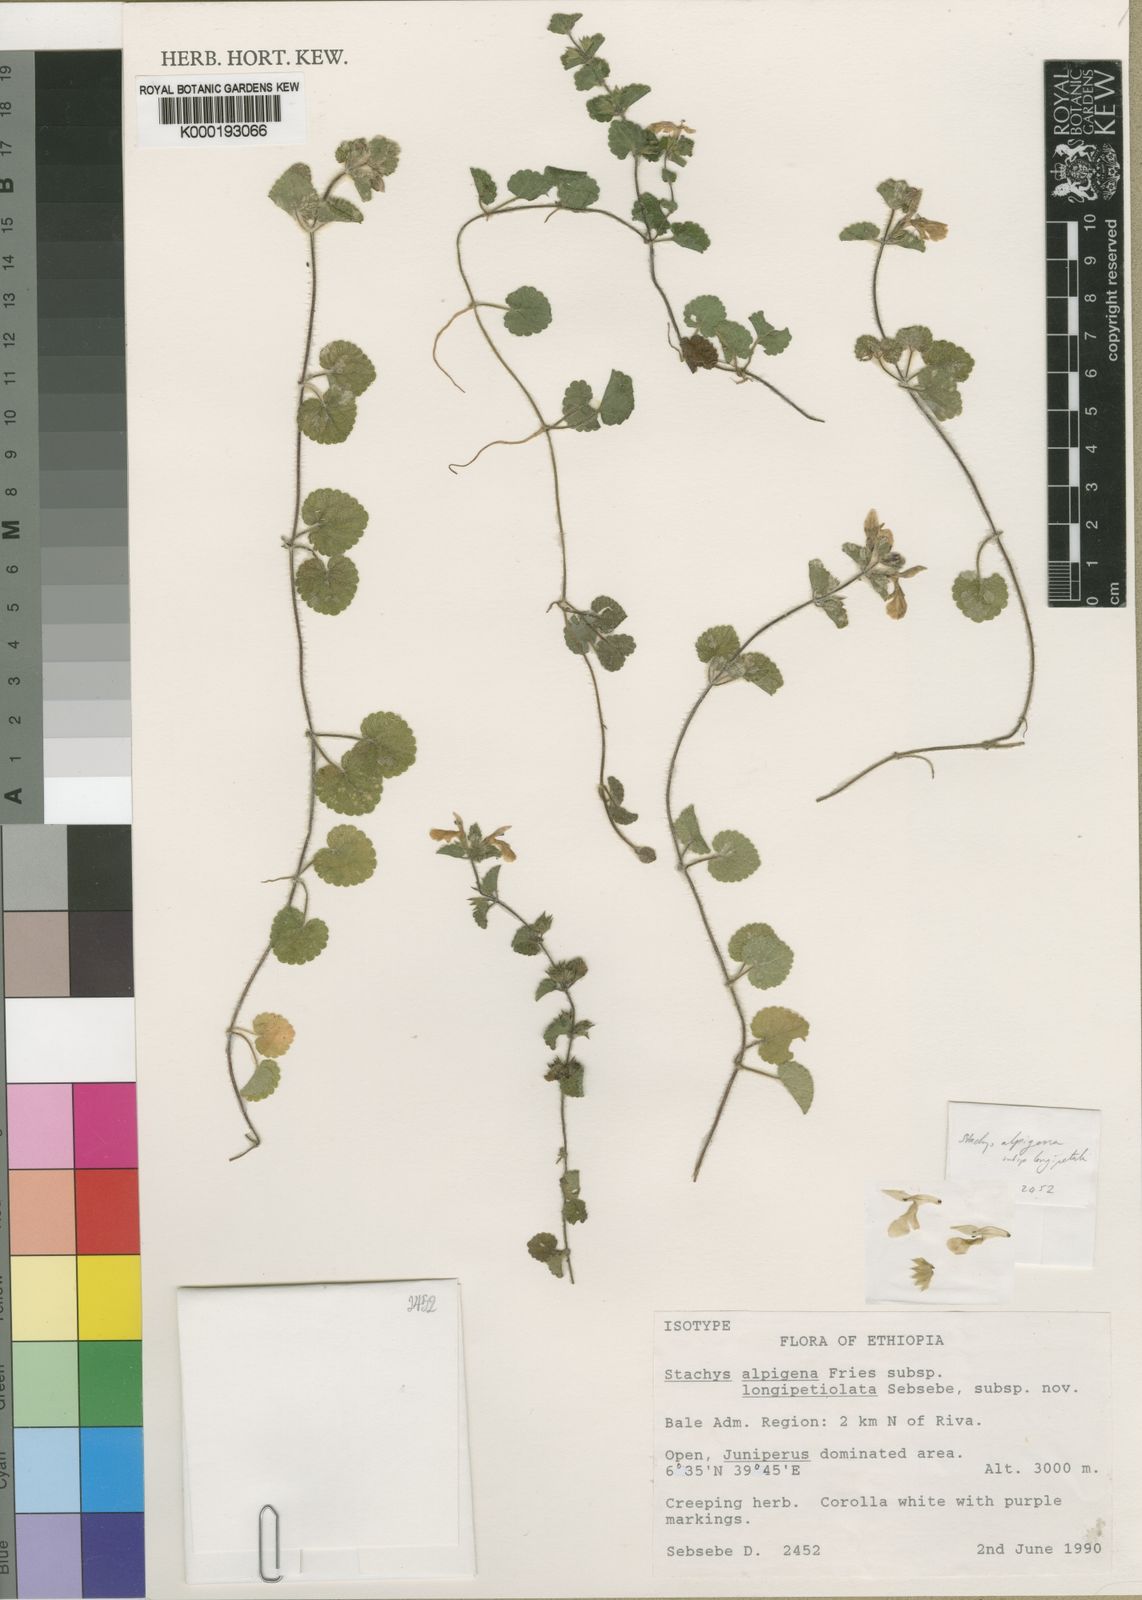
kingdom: Plantae
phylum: Tracheophyta
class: Magnoliopsida
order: Lamiales
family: Lamiaceae
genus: Stachys
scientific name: Stachys alpigena
